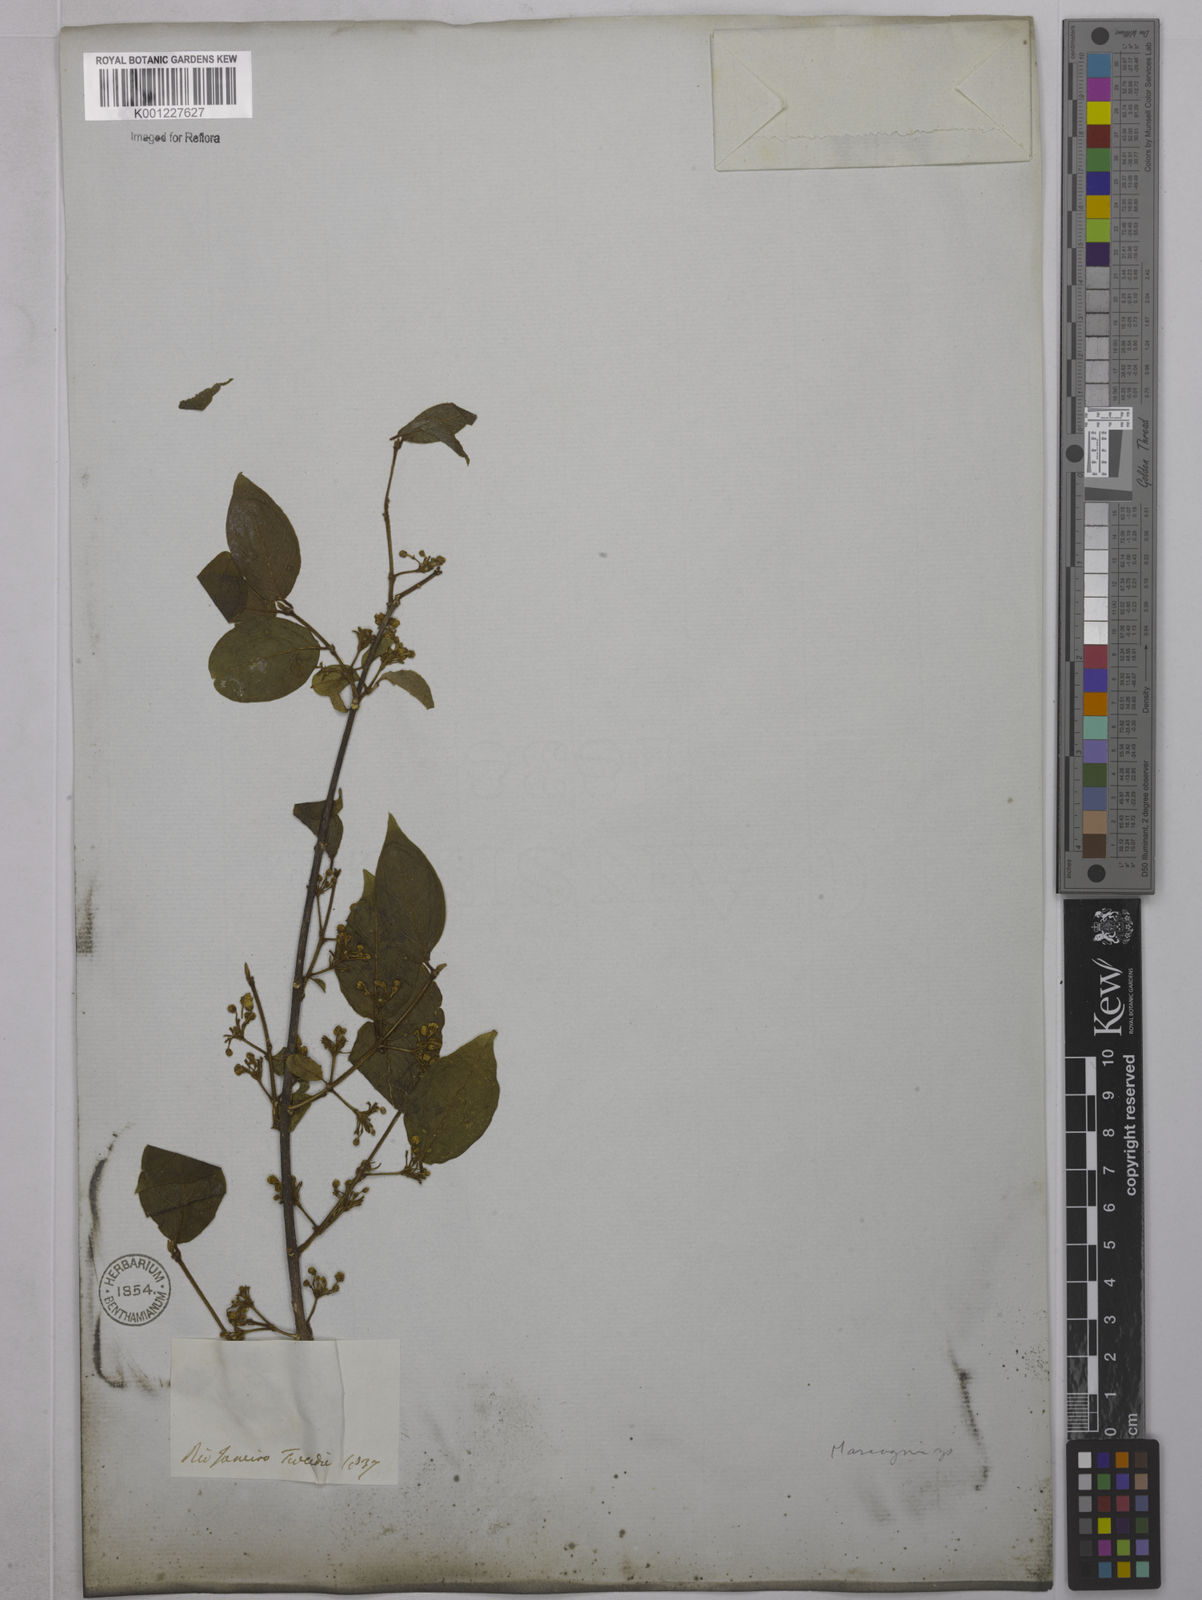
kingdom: Plantae
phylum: Tracheophyta
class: Magnoliopsida
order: Malpighiales
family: Malpighiaceae
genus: Mascagnia
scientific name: Mascagnia
